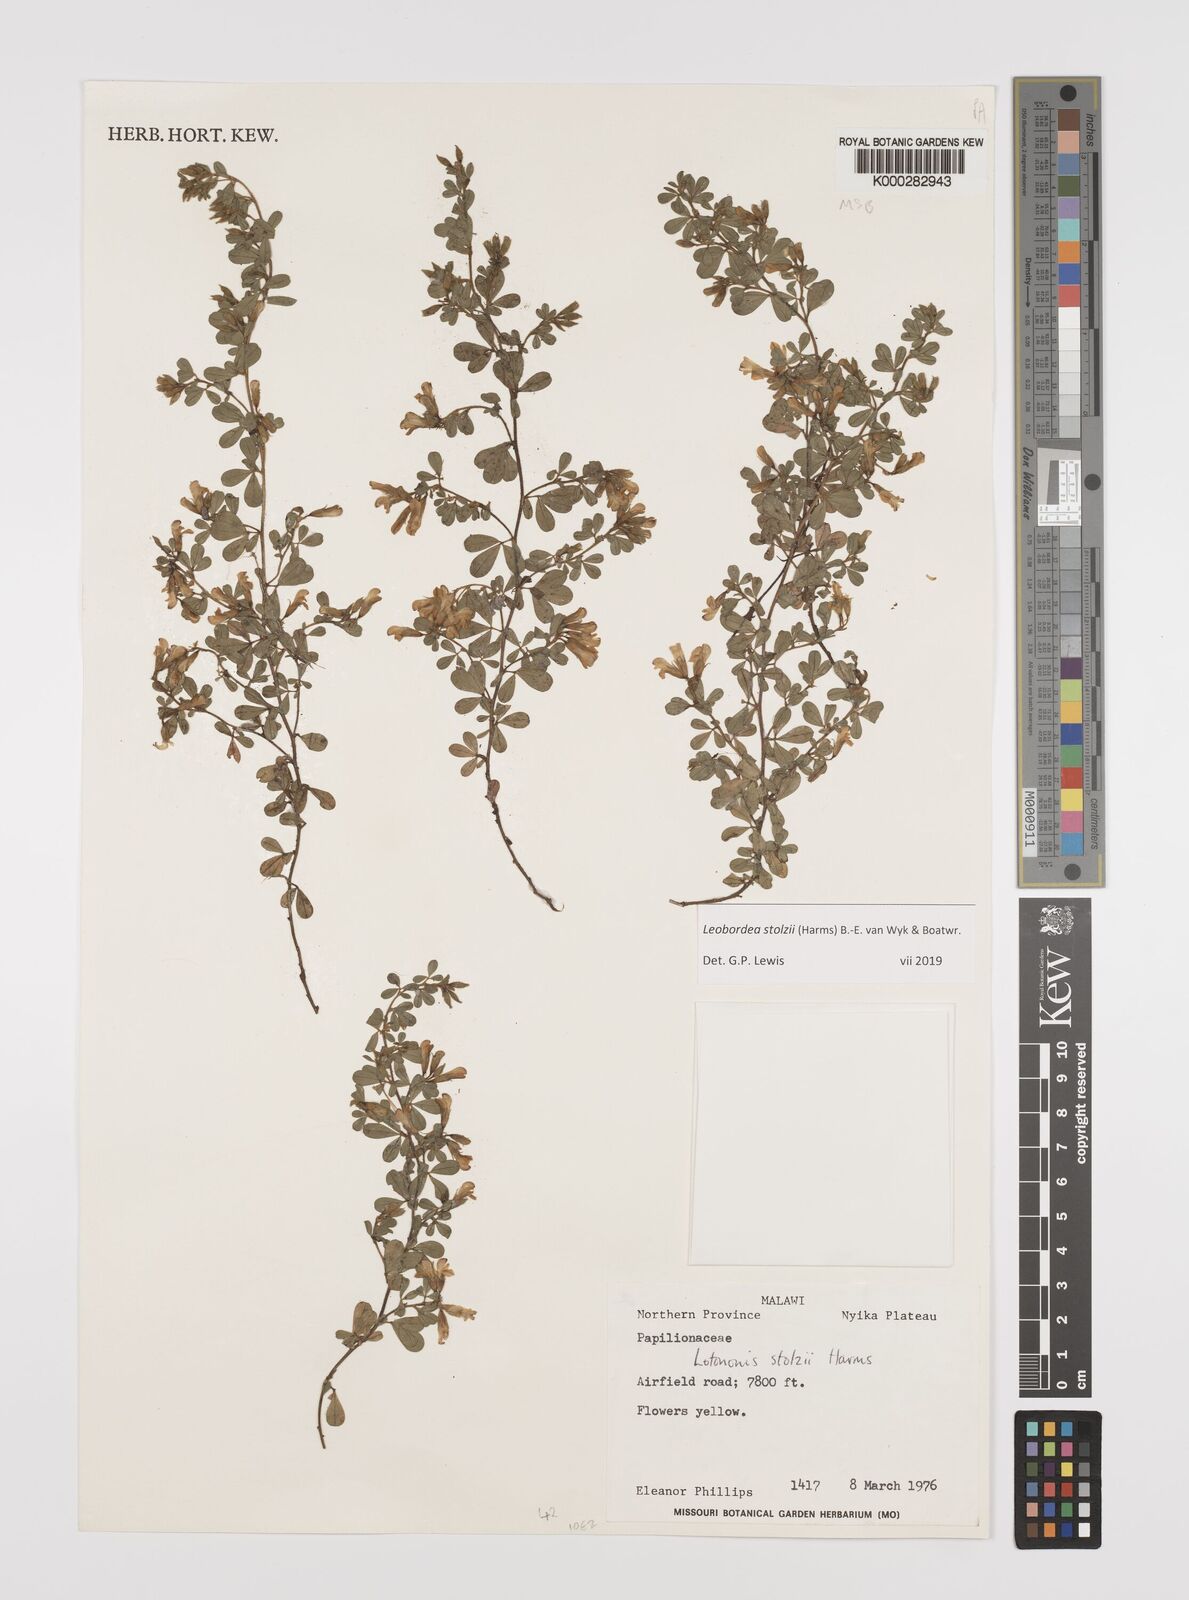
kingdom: Plantae
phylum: Tracheophyta
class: Magnoliopsida
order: Fabales
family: Fabaceae
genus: Leobordea
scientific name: Leobordea stolzii
